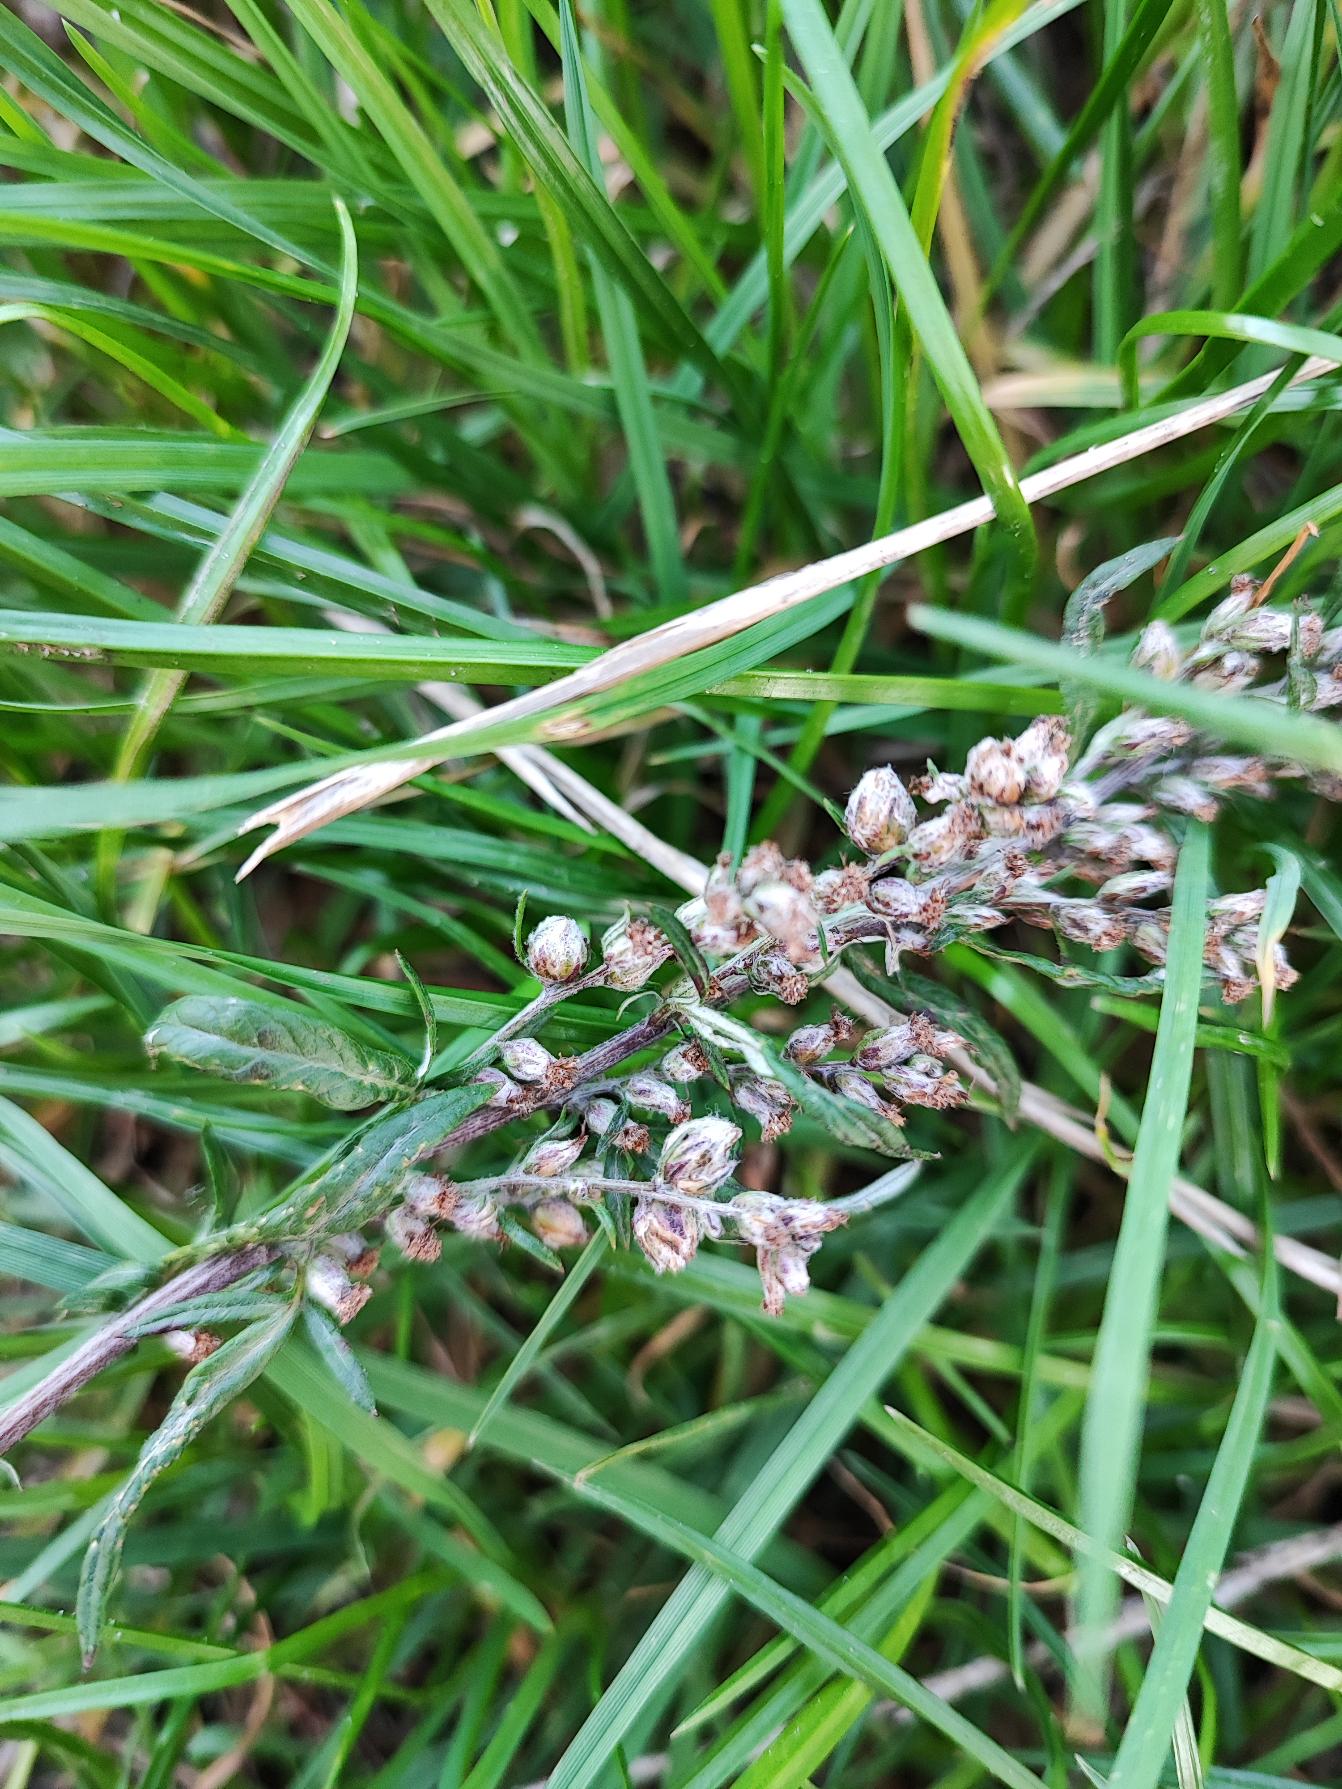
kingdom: Animalia
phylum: Arthropoda
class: Insecta
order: Diptera
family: Cecidomyiidae
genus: Ametrodiplosis
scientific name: Ametrodiplosis rudimentalis
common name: Bynkekurvgalmyg
